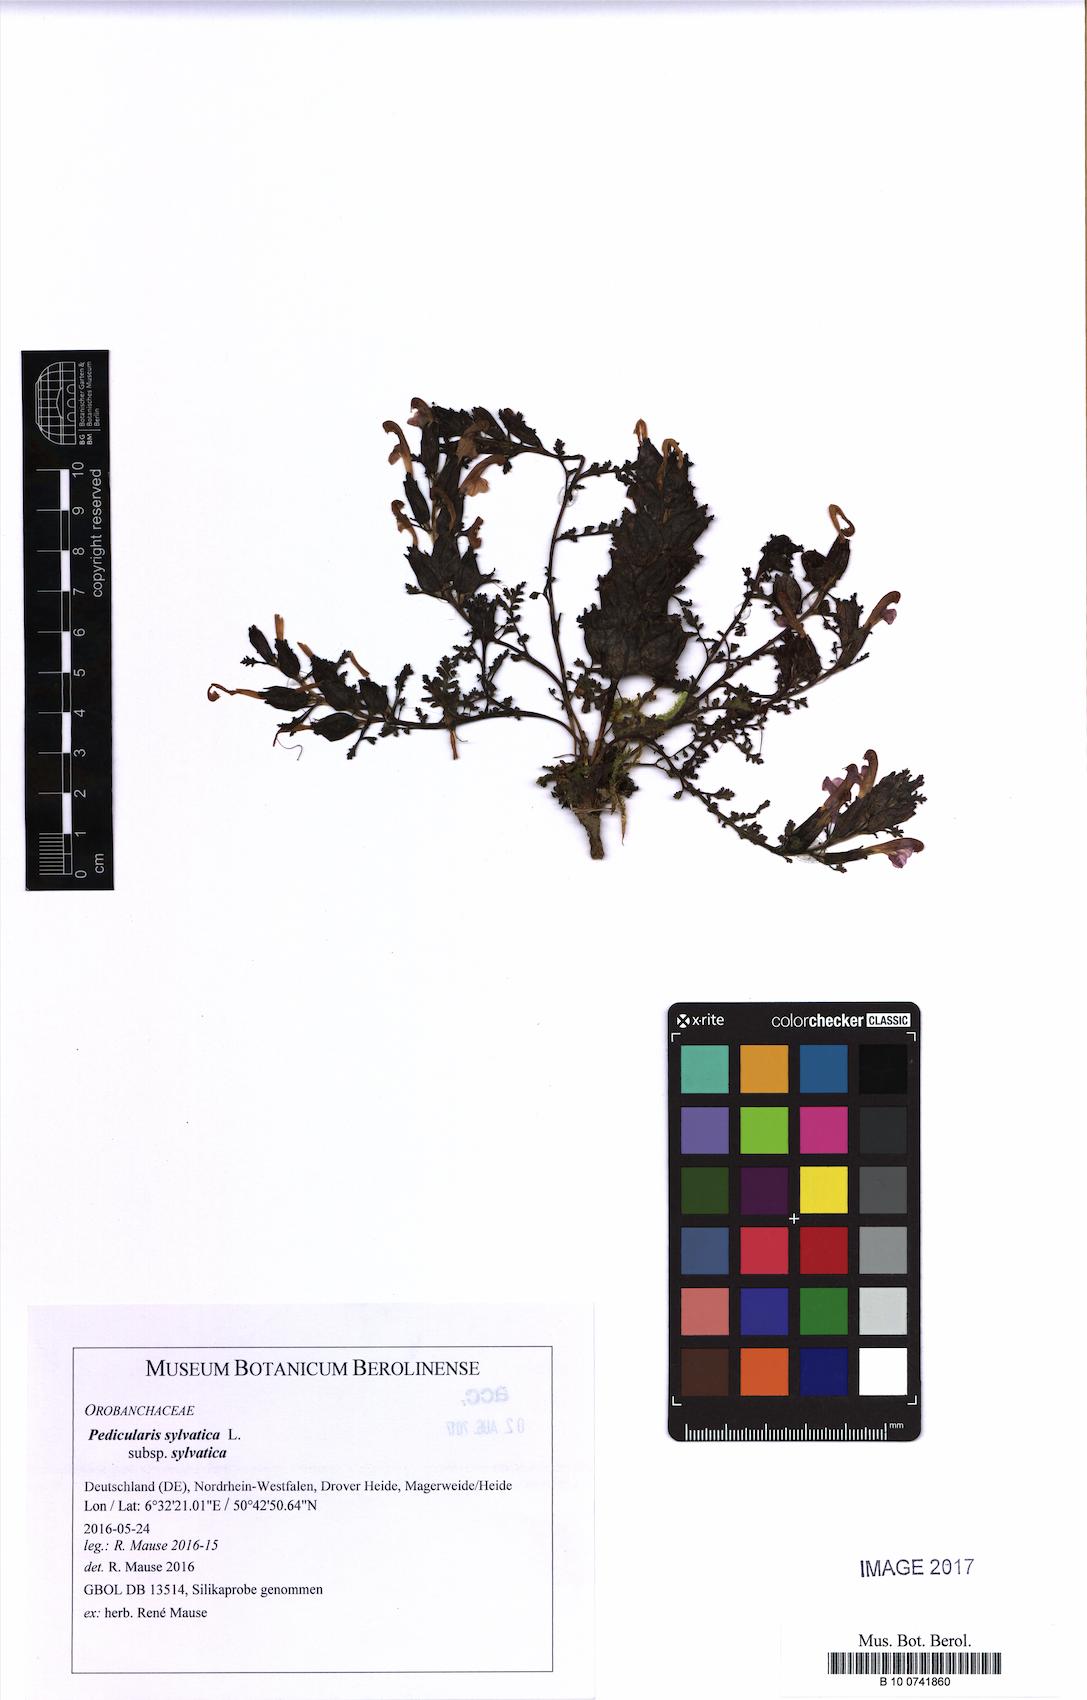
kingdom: Plantae
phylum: Tracheophyta
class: Magnoliopsida
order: Lamiales
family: Orobanchaceae
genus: Pedicularis
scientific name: Pedicularis sylvatica
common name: Lousewort
